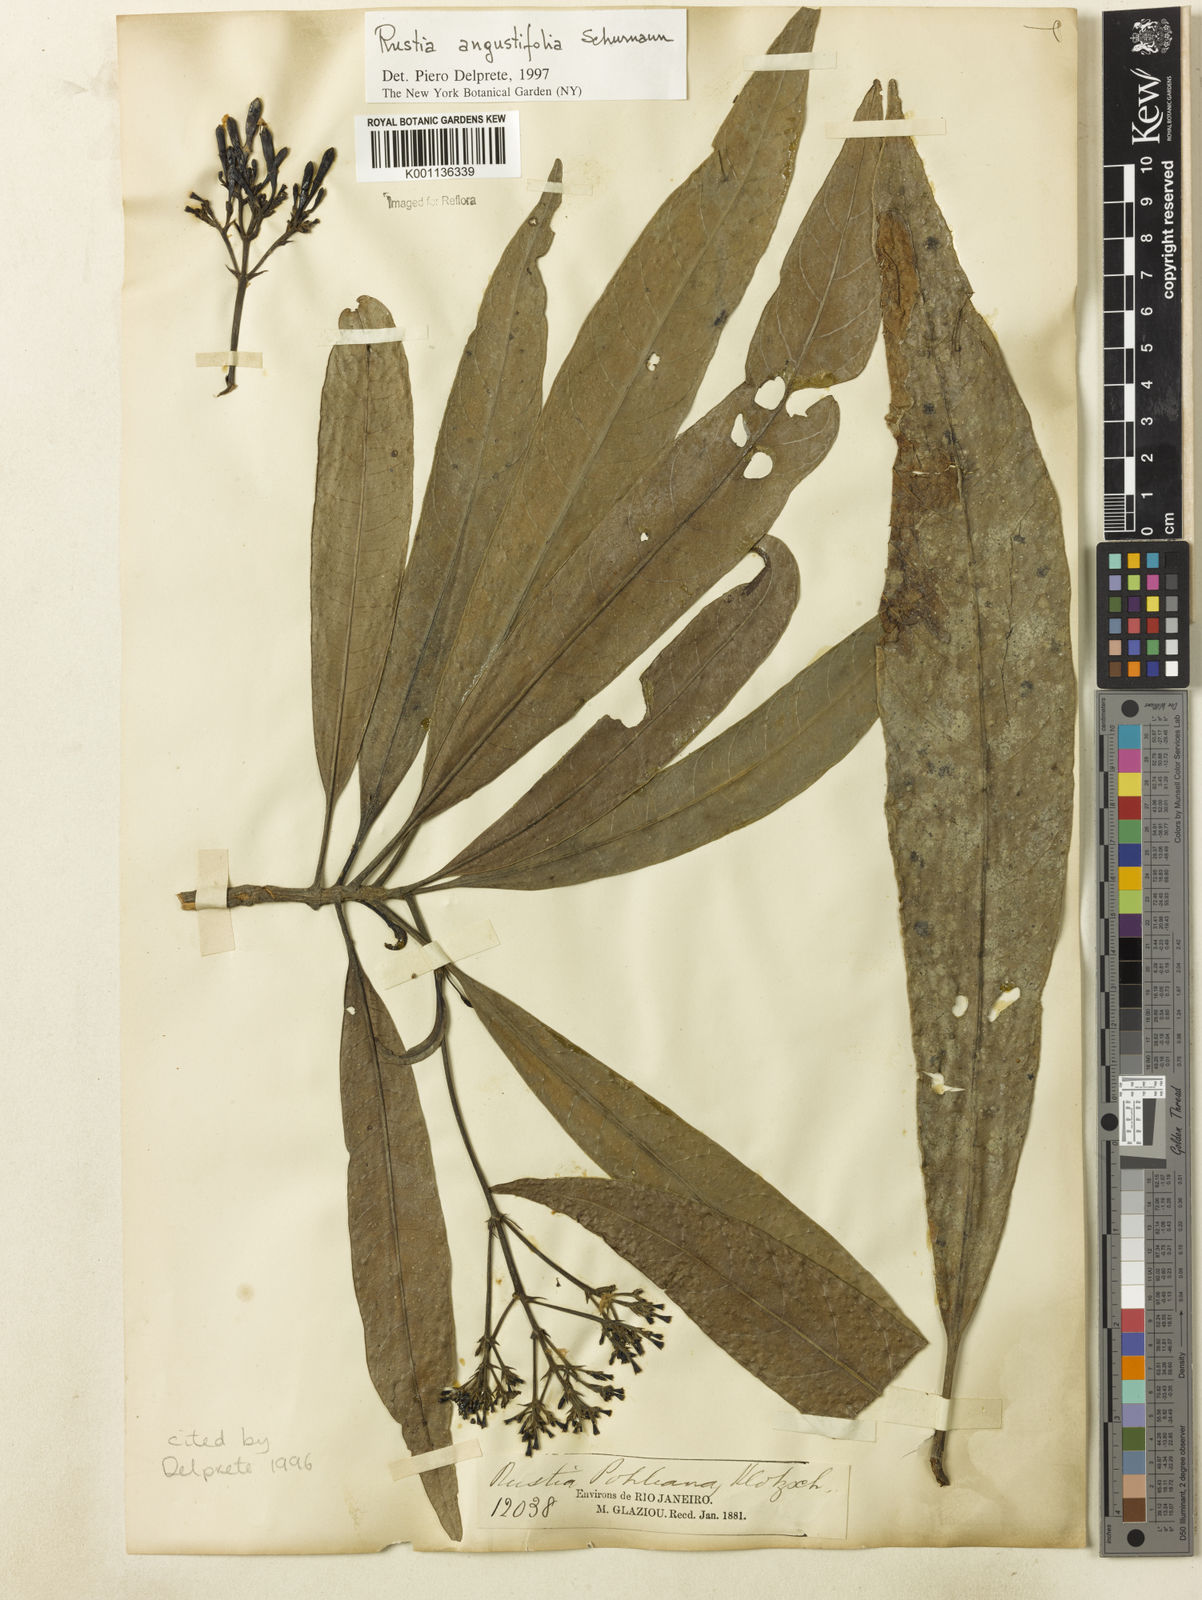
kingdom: Plantae
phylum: Tracheophyta
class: Magnoliopsida
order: Gentianales
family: Rubiaceae
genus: Rustia
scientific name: Rustia angustifolia
